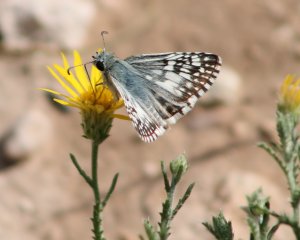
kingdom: Animalia
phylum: Arthropoda
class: Insecta
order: Lepidoptera
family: Hesperiidae
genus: Pyrgus
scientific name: Pyrgus communis
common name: White Checkered-Skipper
